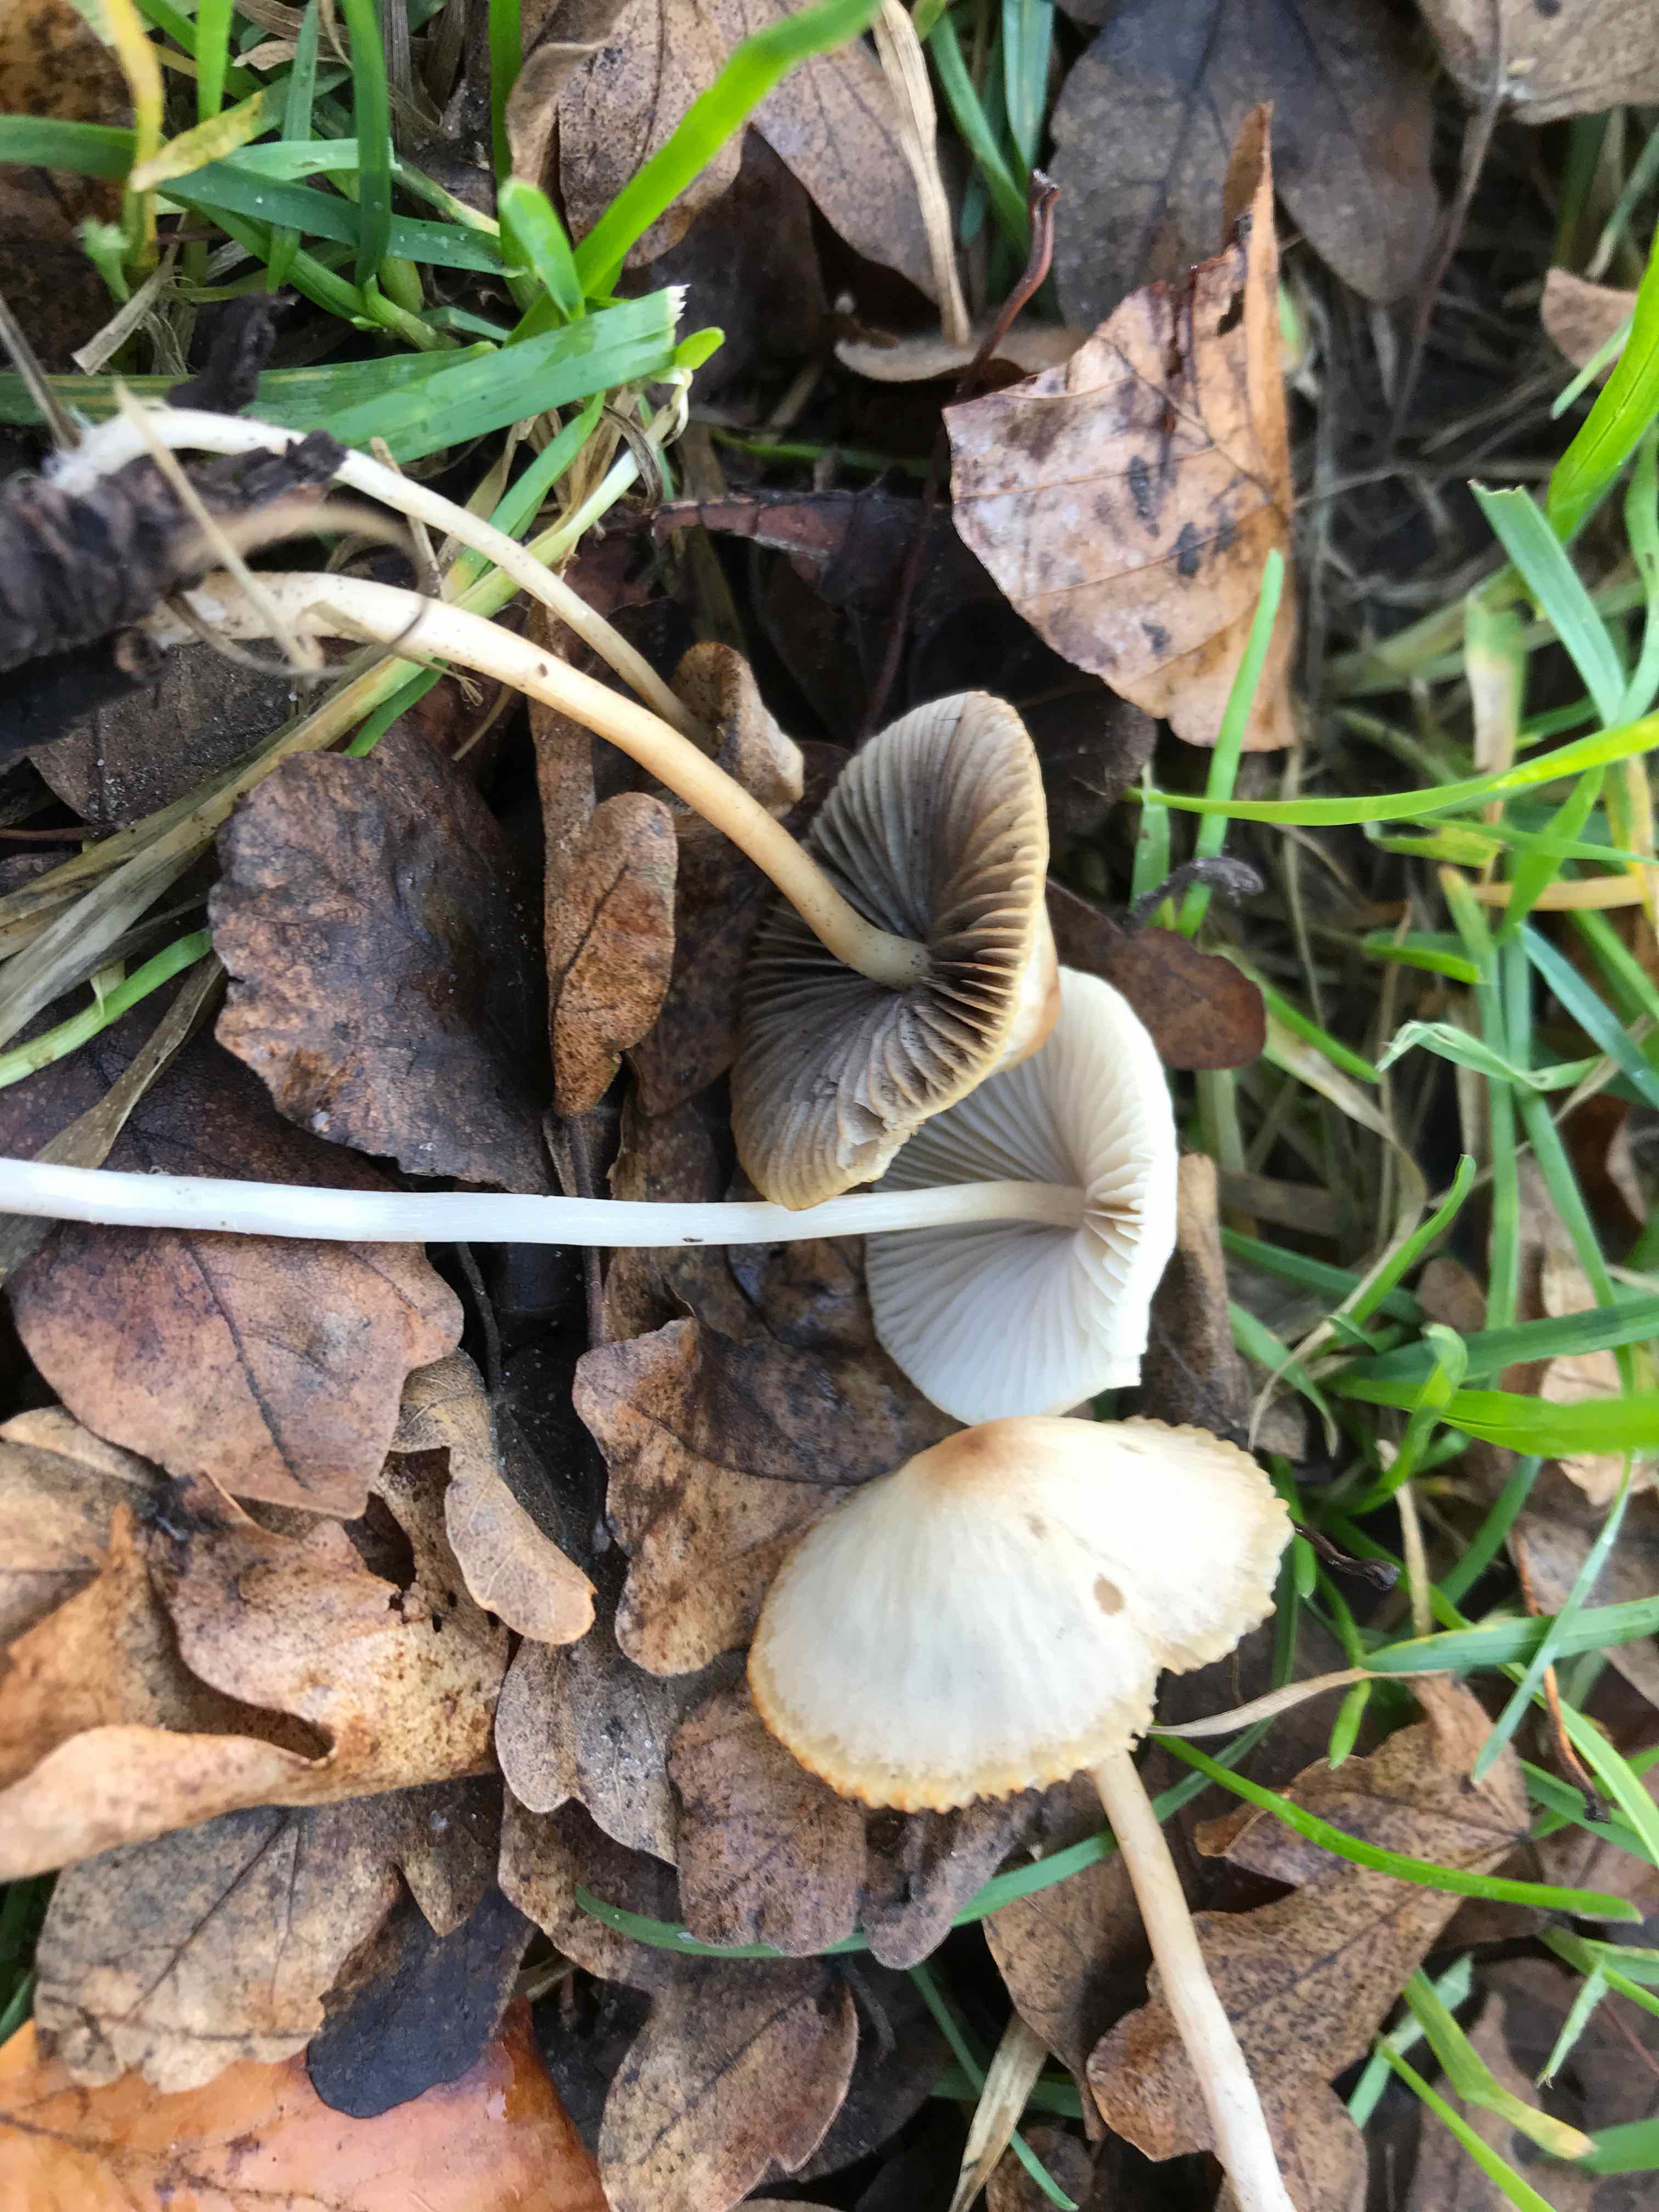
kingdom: Fungi
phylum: Basidiomycota
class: Agaricomycetes
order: Agaricales
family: Psathyrellaceae
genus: Psathyrella
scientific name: Psathyrella
